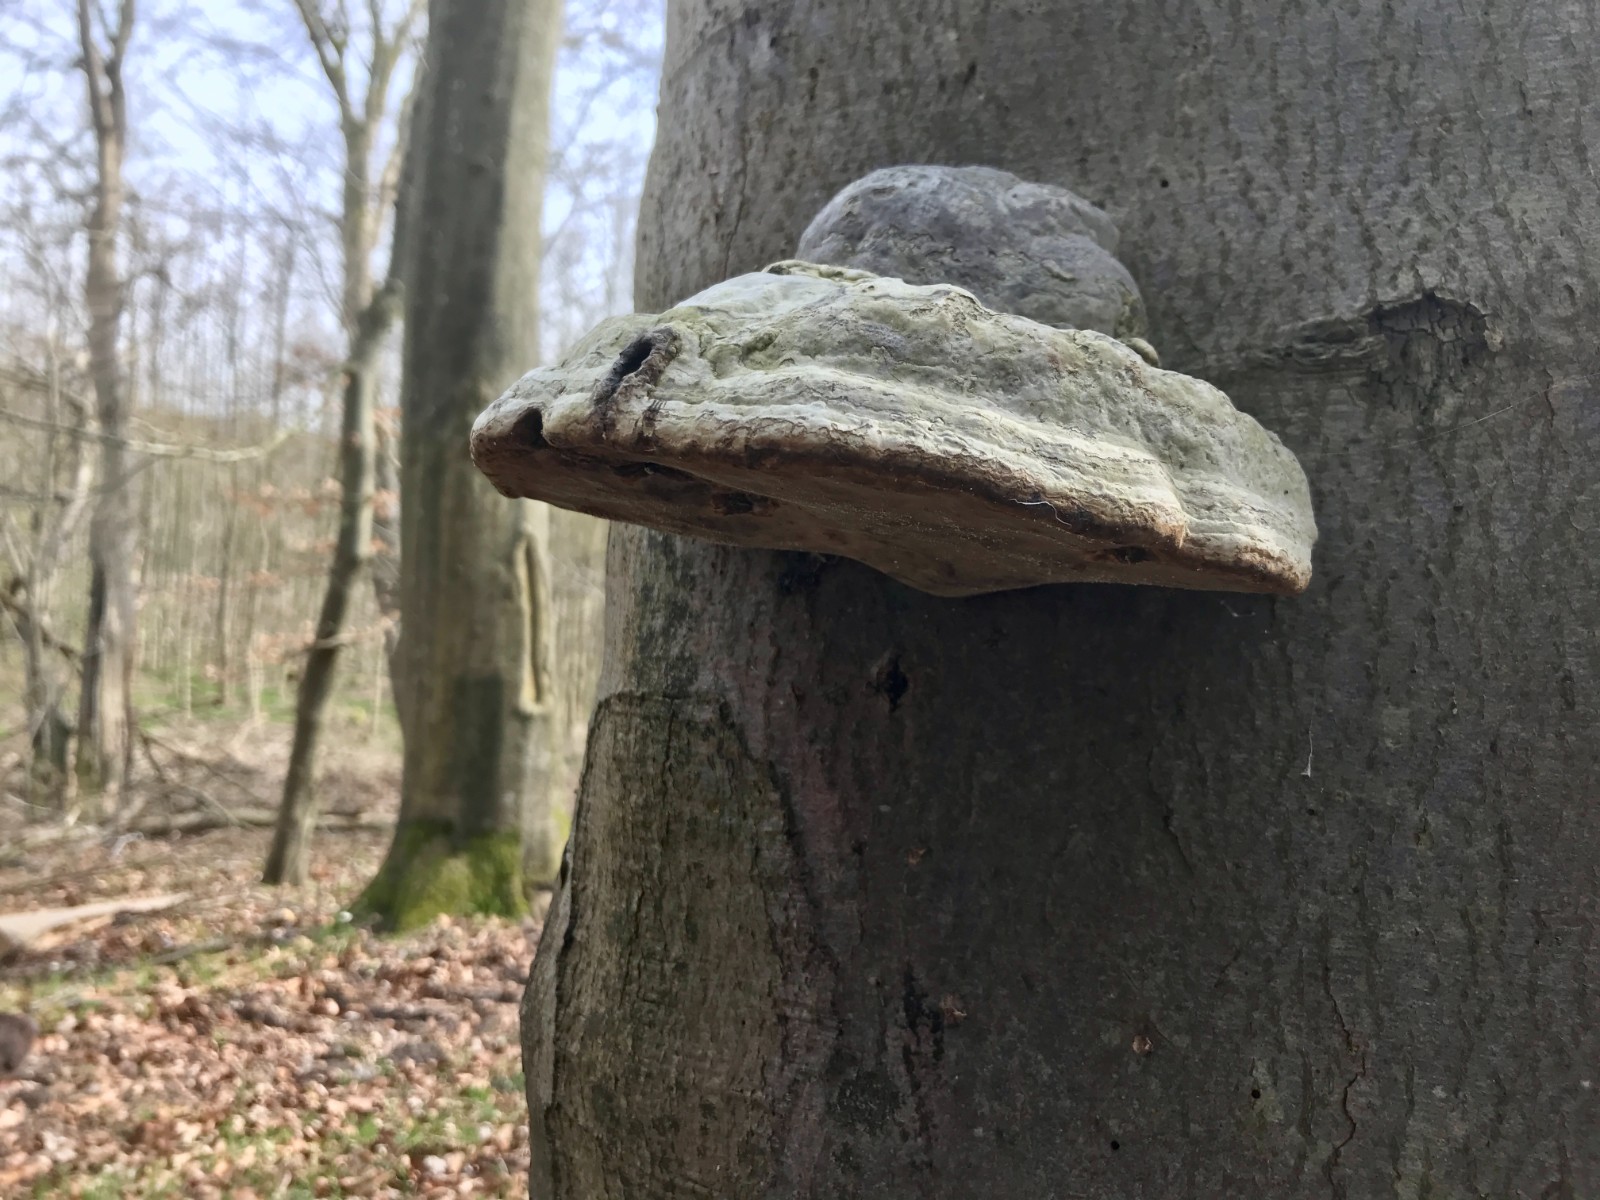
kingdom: Fungi
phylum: Basidiomycota
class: Agaricomycetes
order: Polyporales
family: Polyporaceae
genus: Fomes
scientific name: Fomes fomentarius
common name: tøndersvamp
